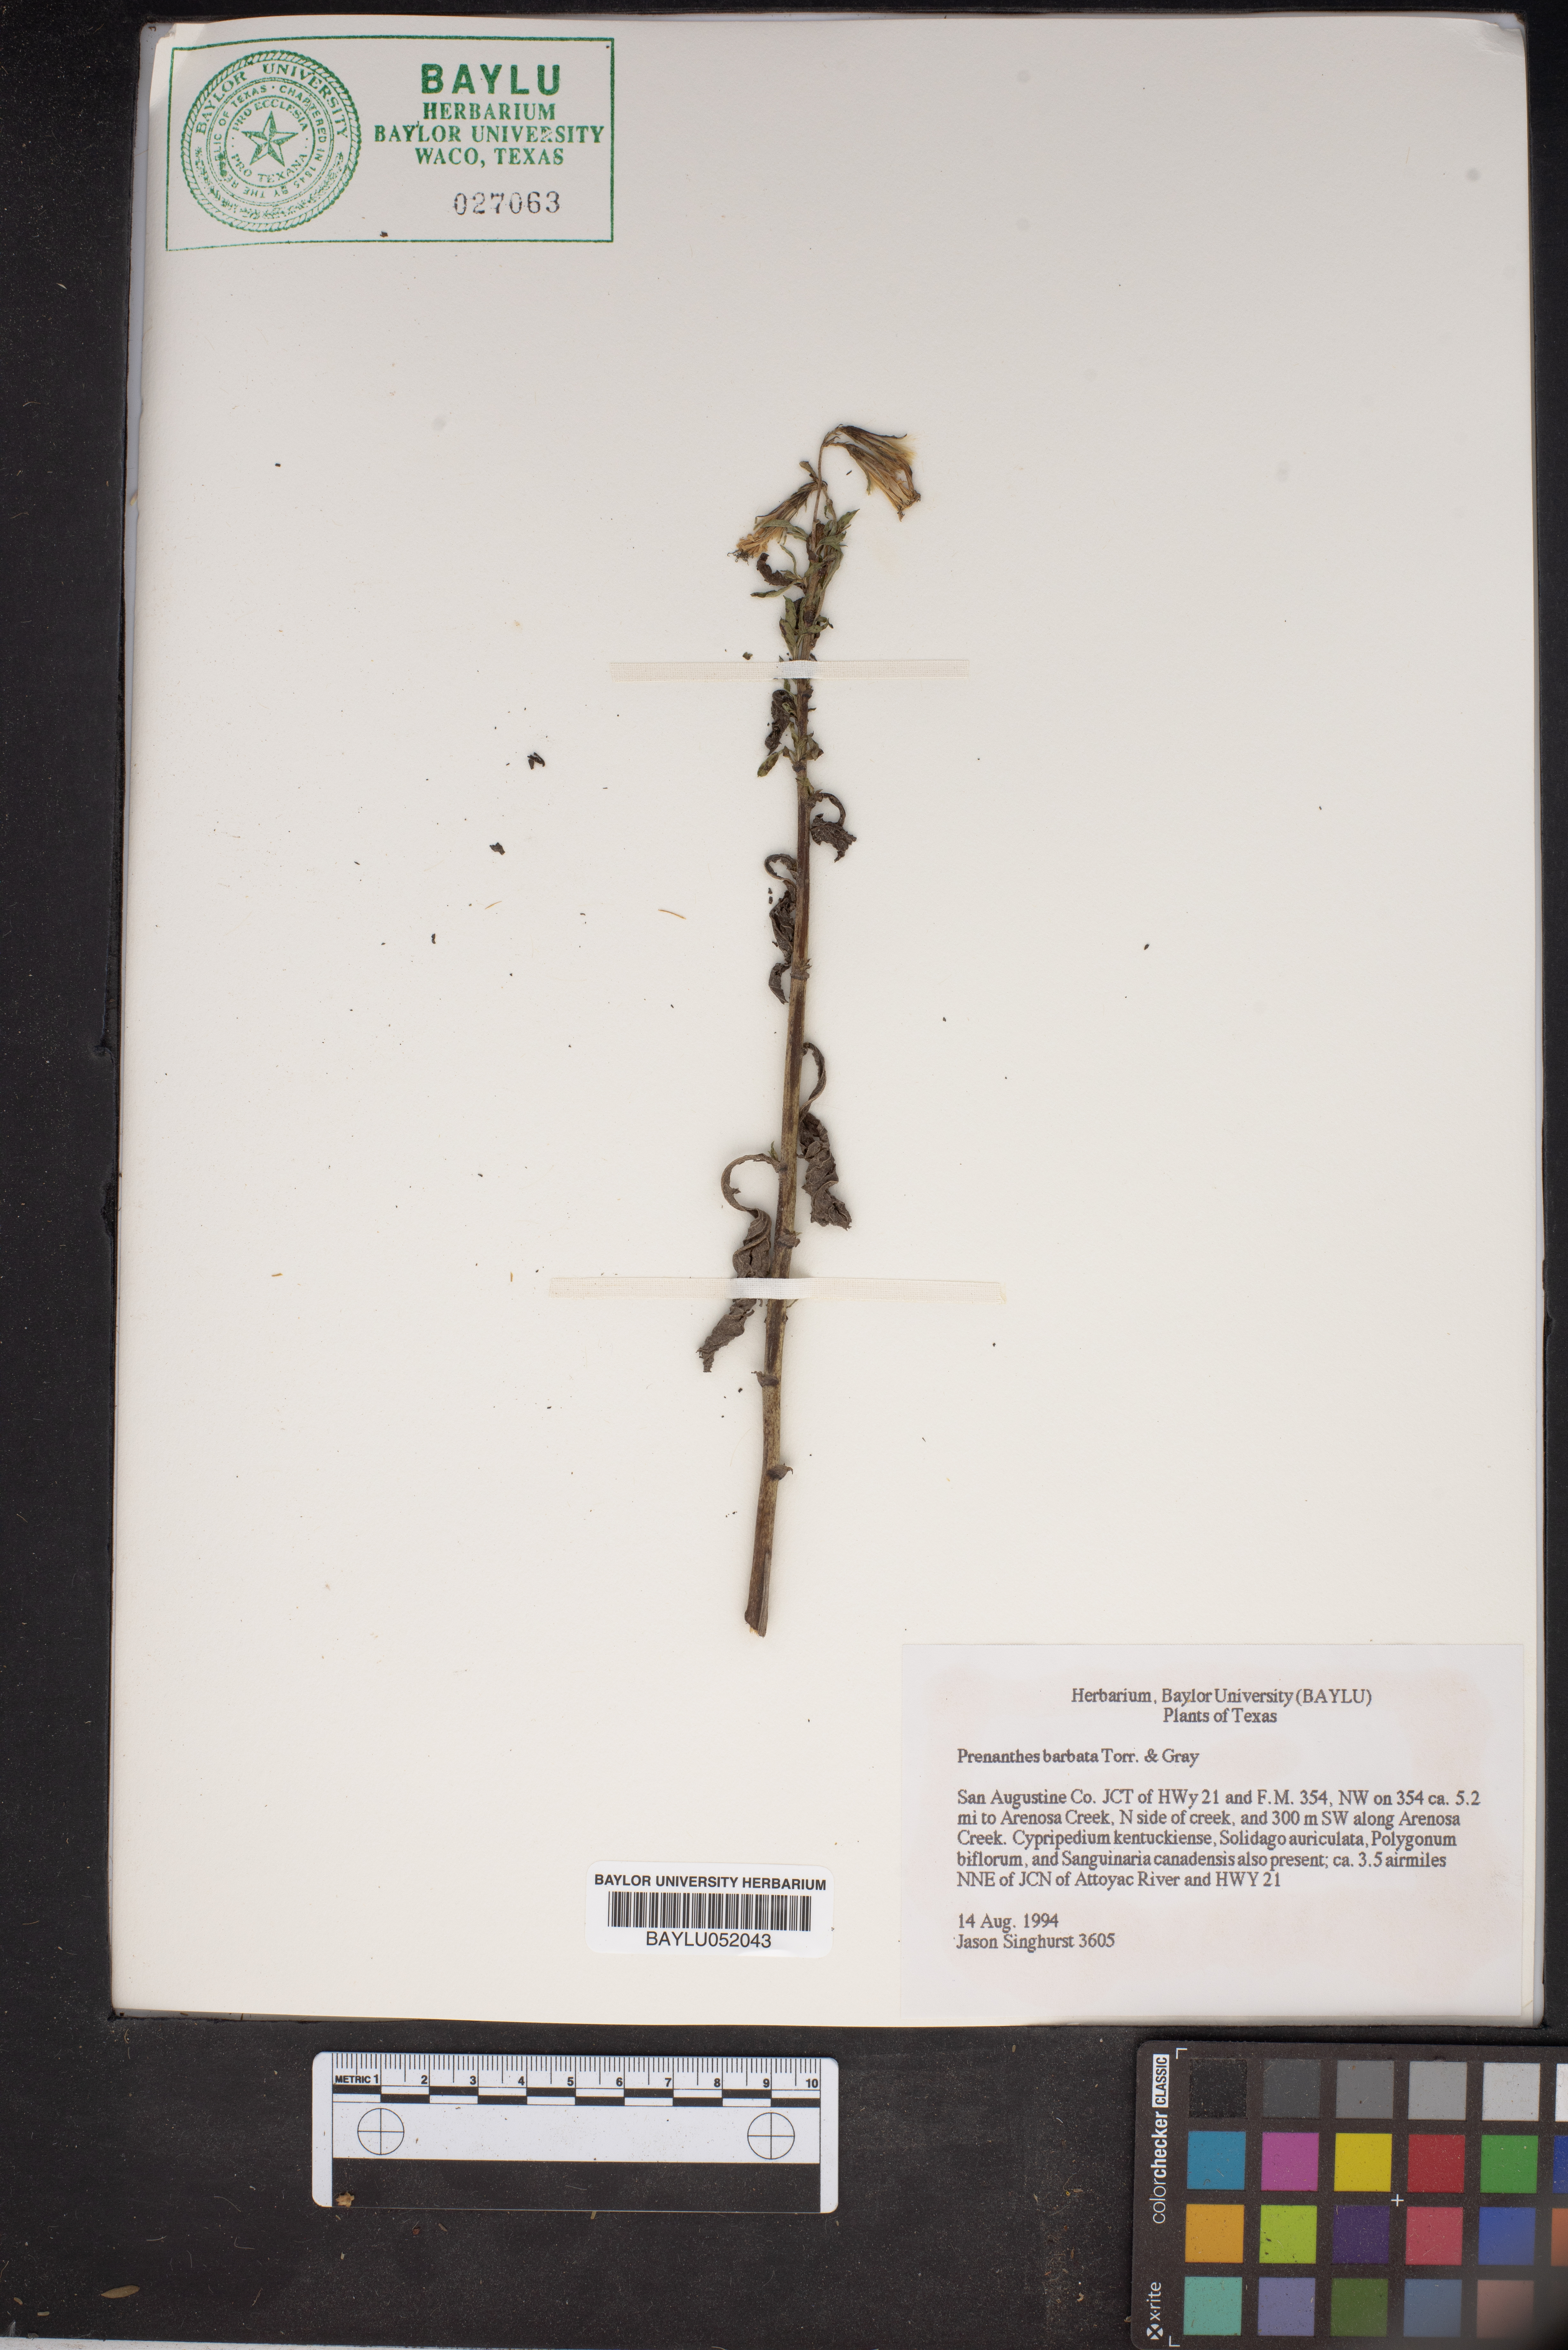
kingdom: Plantae
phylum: Tracheophyta
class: Magnoliopsida
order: Asterales
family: Asteraceae
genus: Nabalus
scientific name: Nabalus barbata
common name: Barbed rattlesnakeroot
